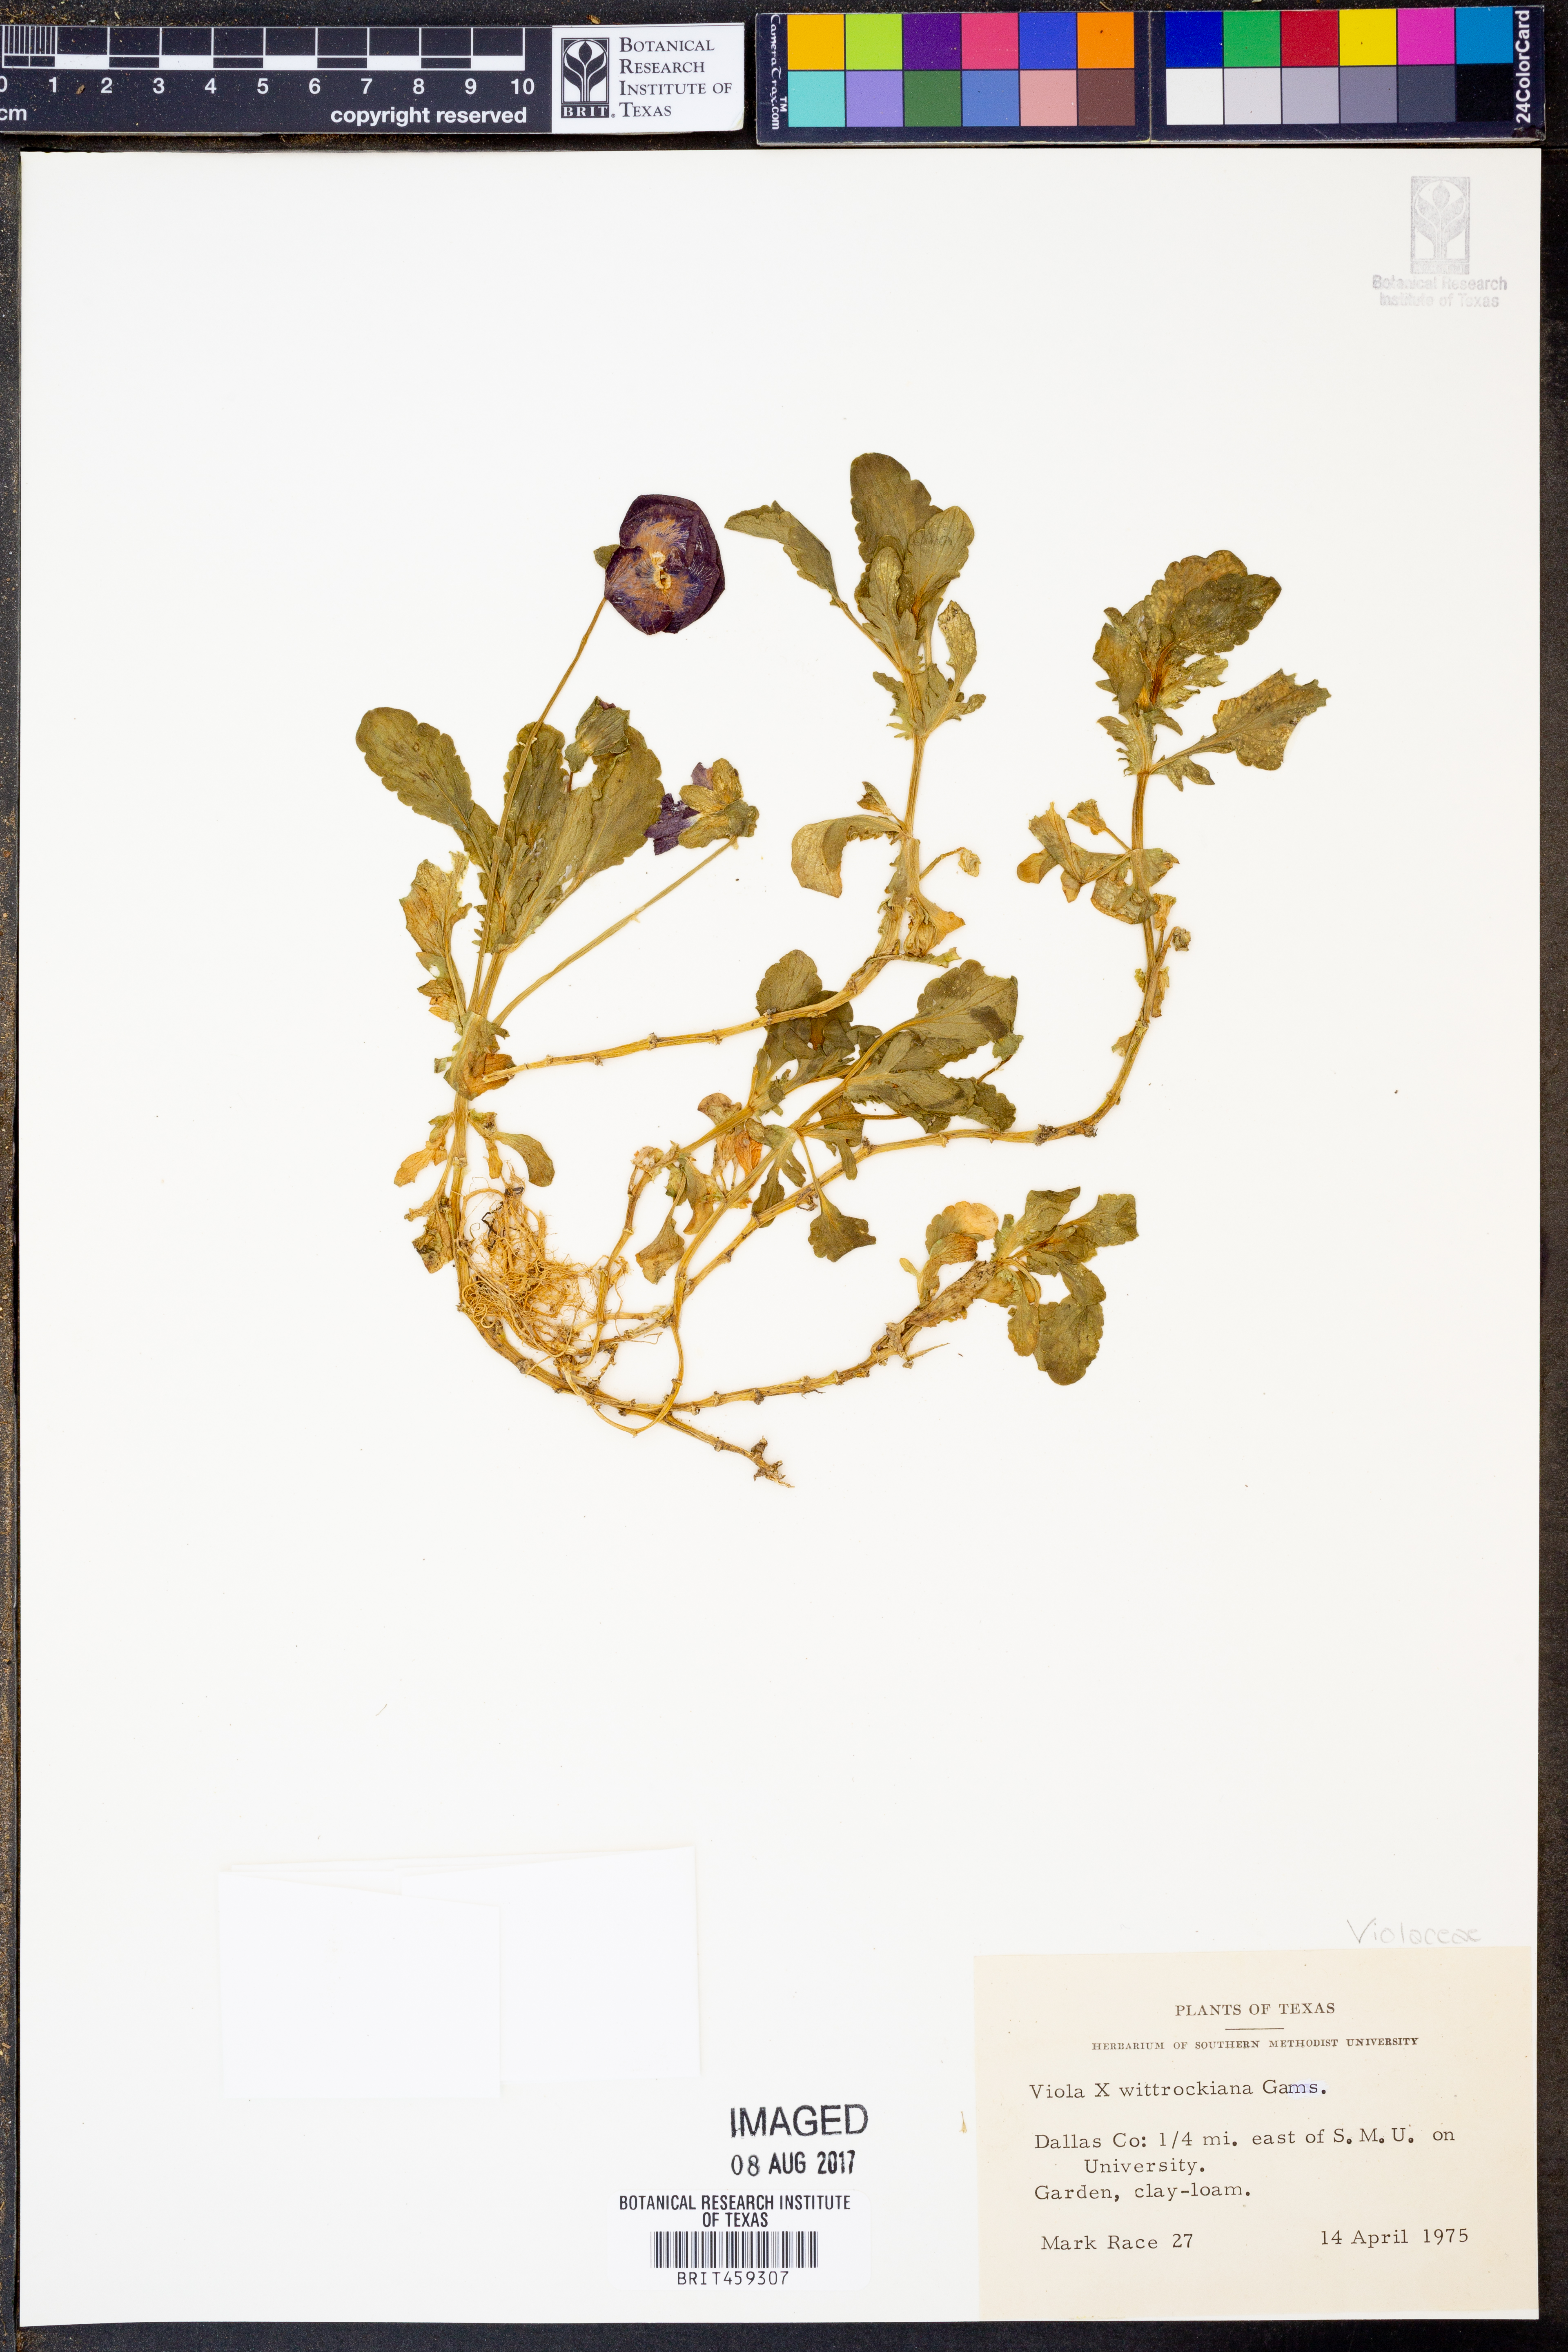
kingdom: Plantae
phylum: Tracheophyta
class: Magnoliopsida
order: Malpighiales
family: Violaceae
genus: Viola
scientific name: Viola wittrockiana
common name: Garden pansy
